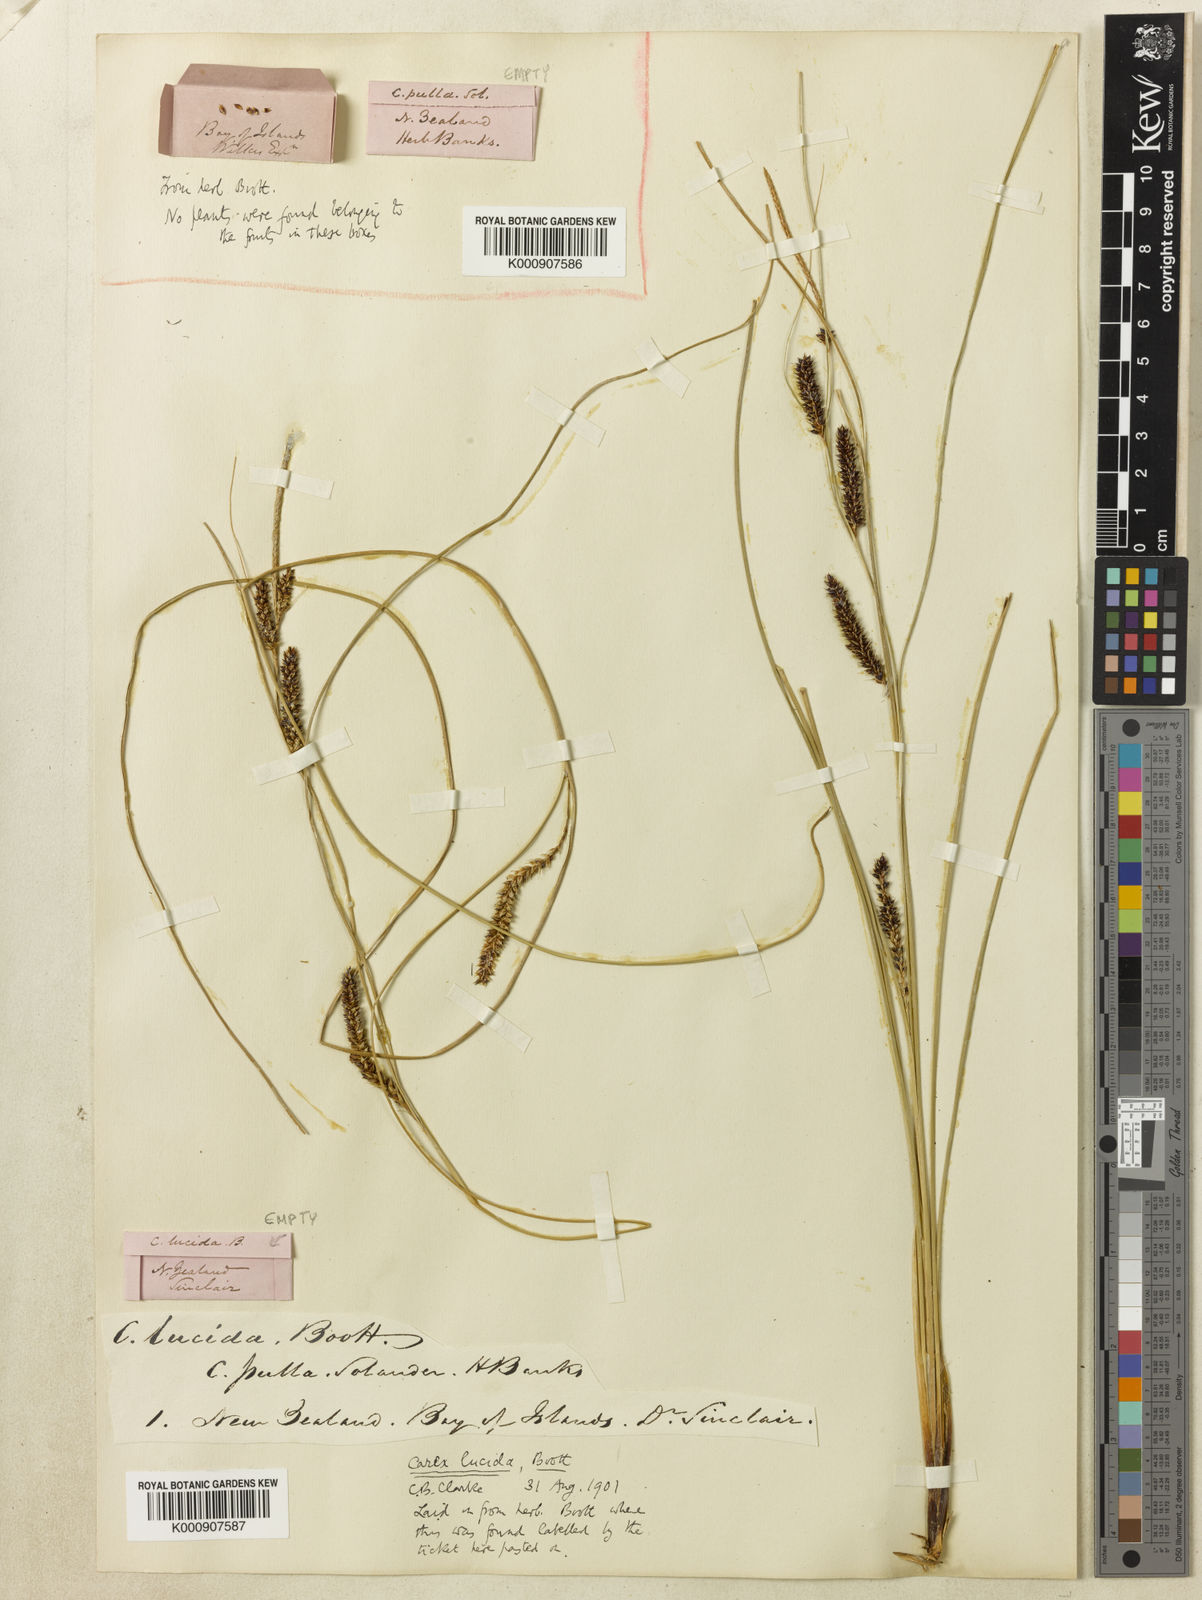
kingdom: Plantae
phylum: Tracheophyta
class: Liliopsida
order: Poales
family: Cyperaceae
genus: Carex
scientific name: Carex flagellifera
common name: Glen murray tussock
